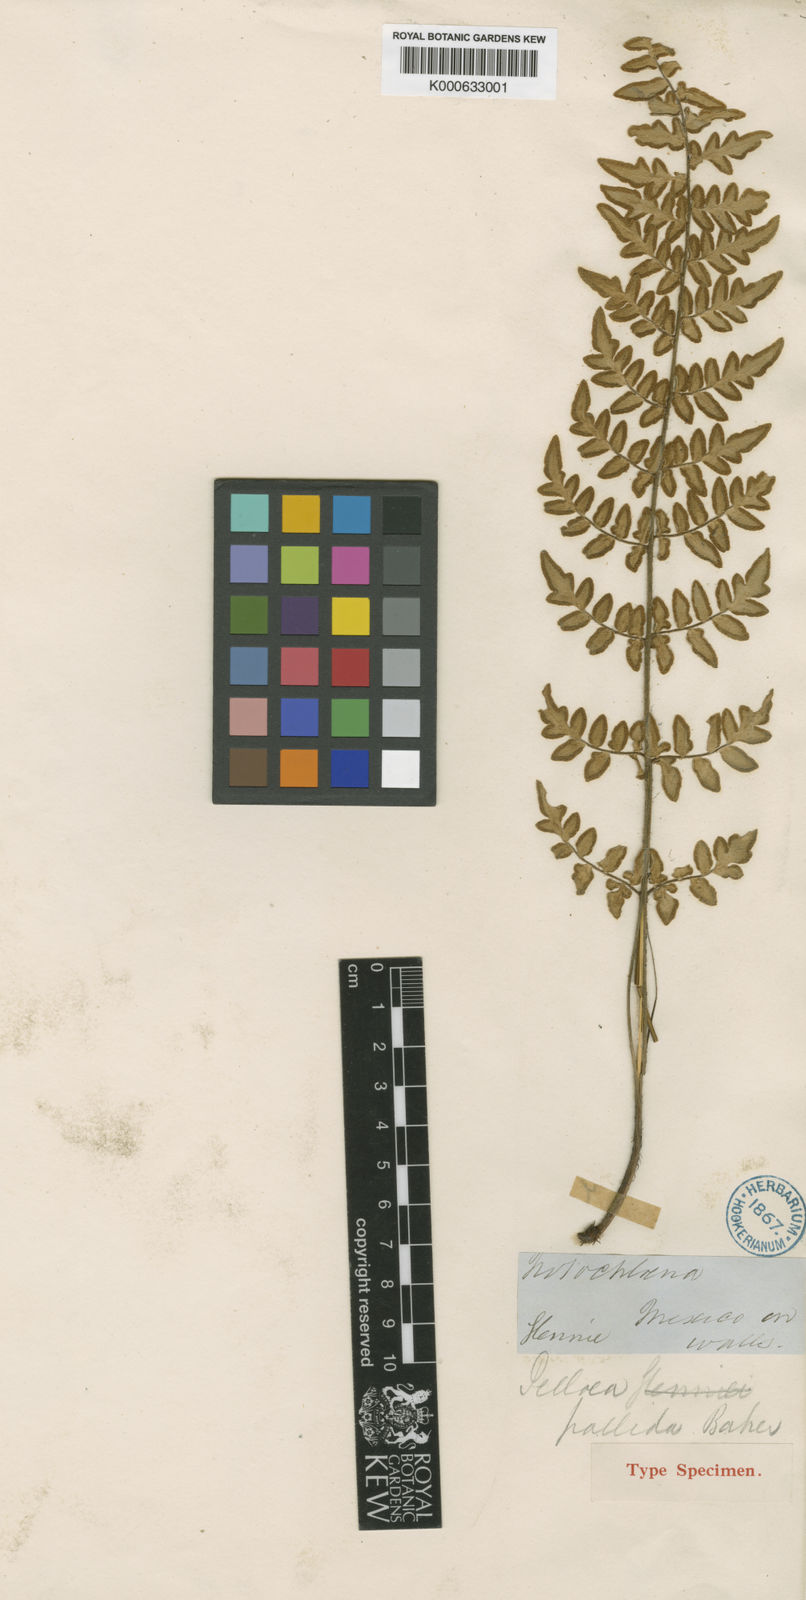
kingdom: Plantae
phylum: Tracheophyta
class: Polypodiopsida
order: Polypodiales
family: Pteridaceae
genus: Myriopteris
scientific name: Myriopteris allosuroides
